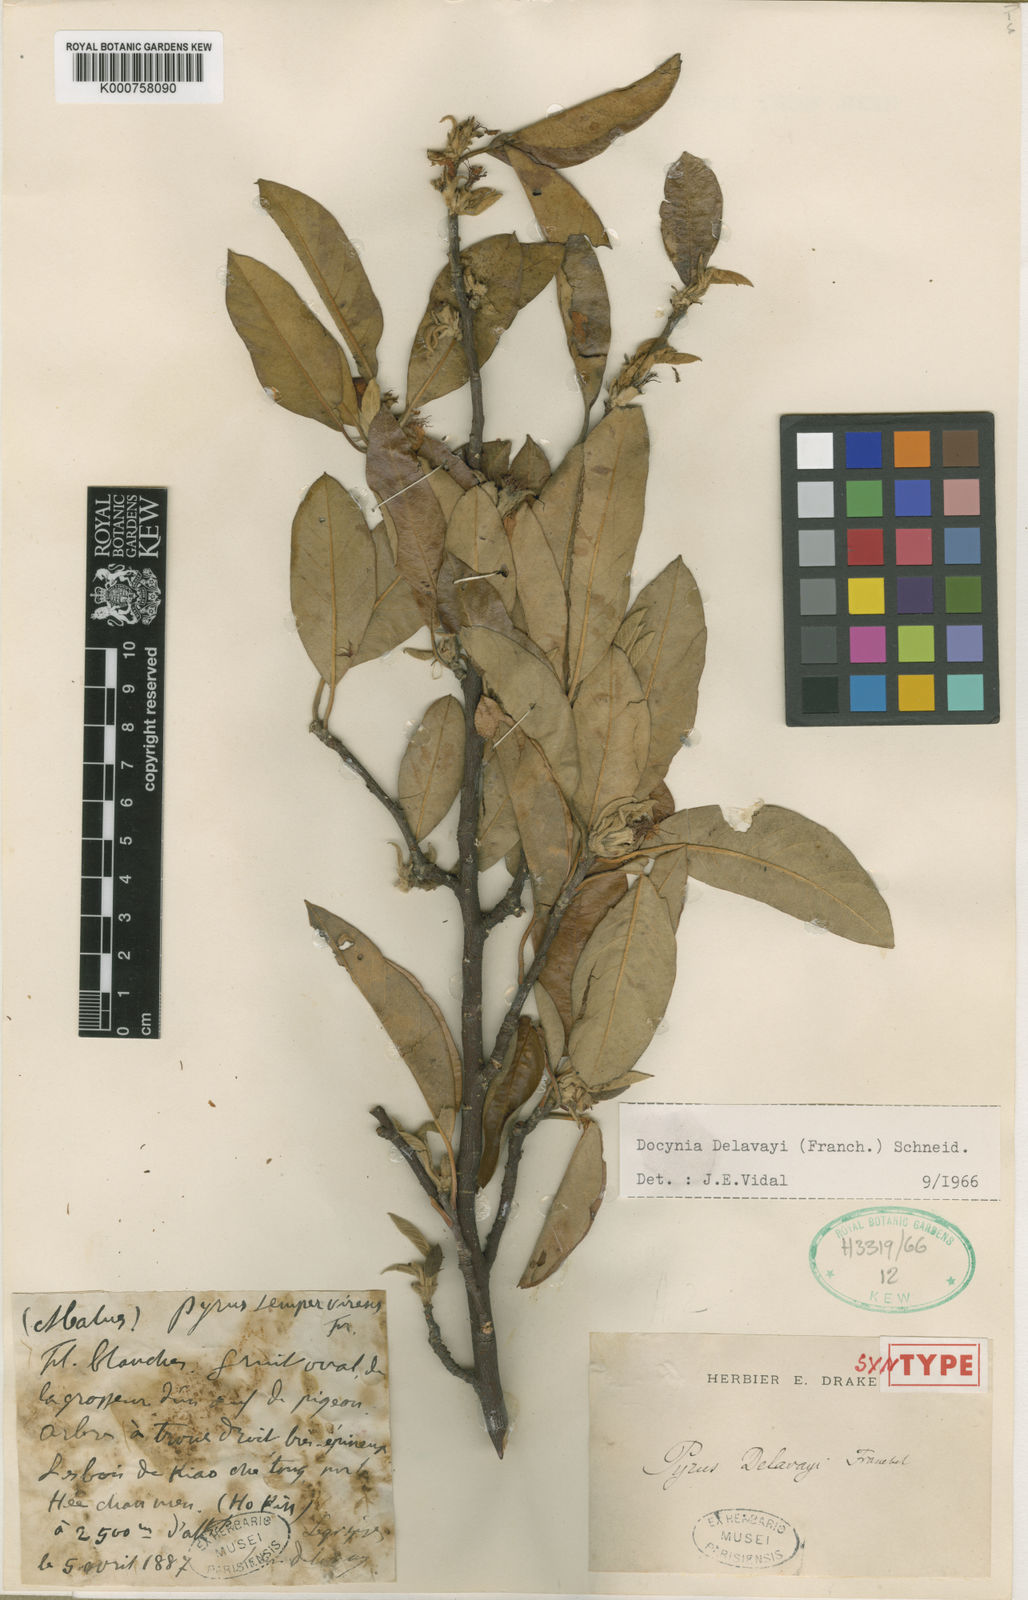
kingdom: Plantae
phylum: Tracheophyta
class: Magnoliopsida
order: Rosales
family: Rosaceae
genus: Malus
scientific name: Malus delavayi
